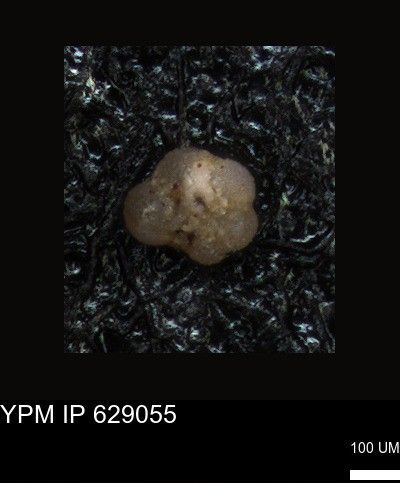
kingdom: Chromista
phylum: Foraminifera
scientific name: Foraminifera
